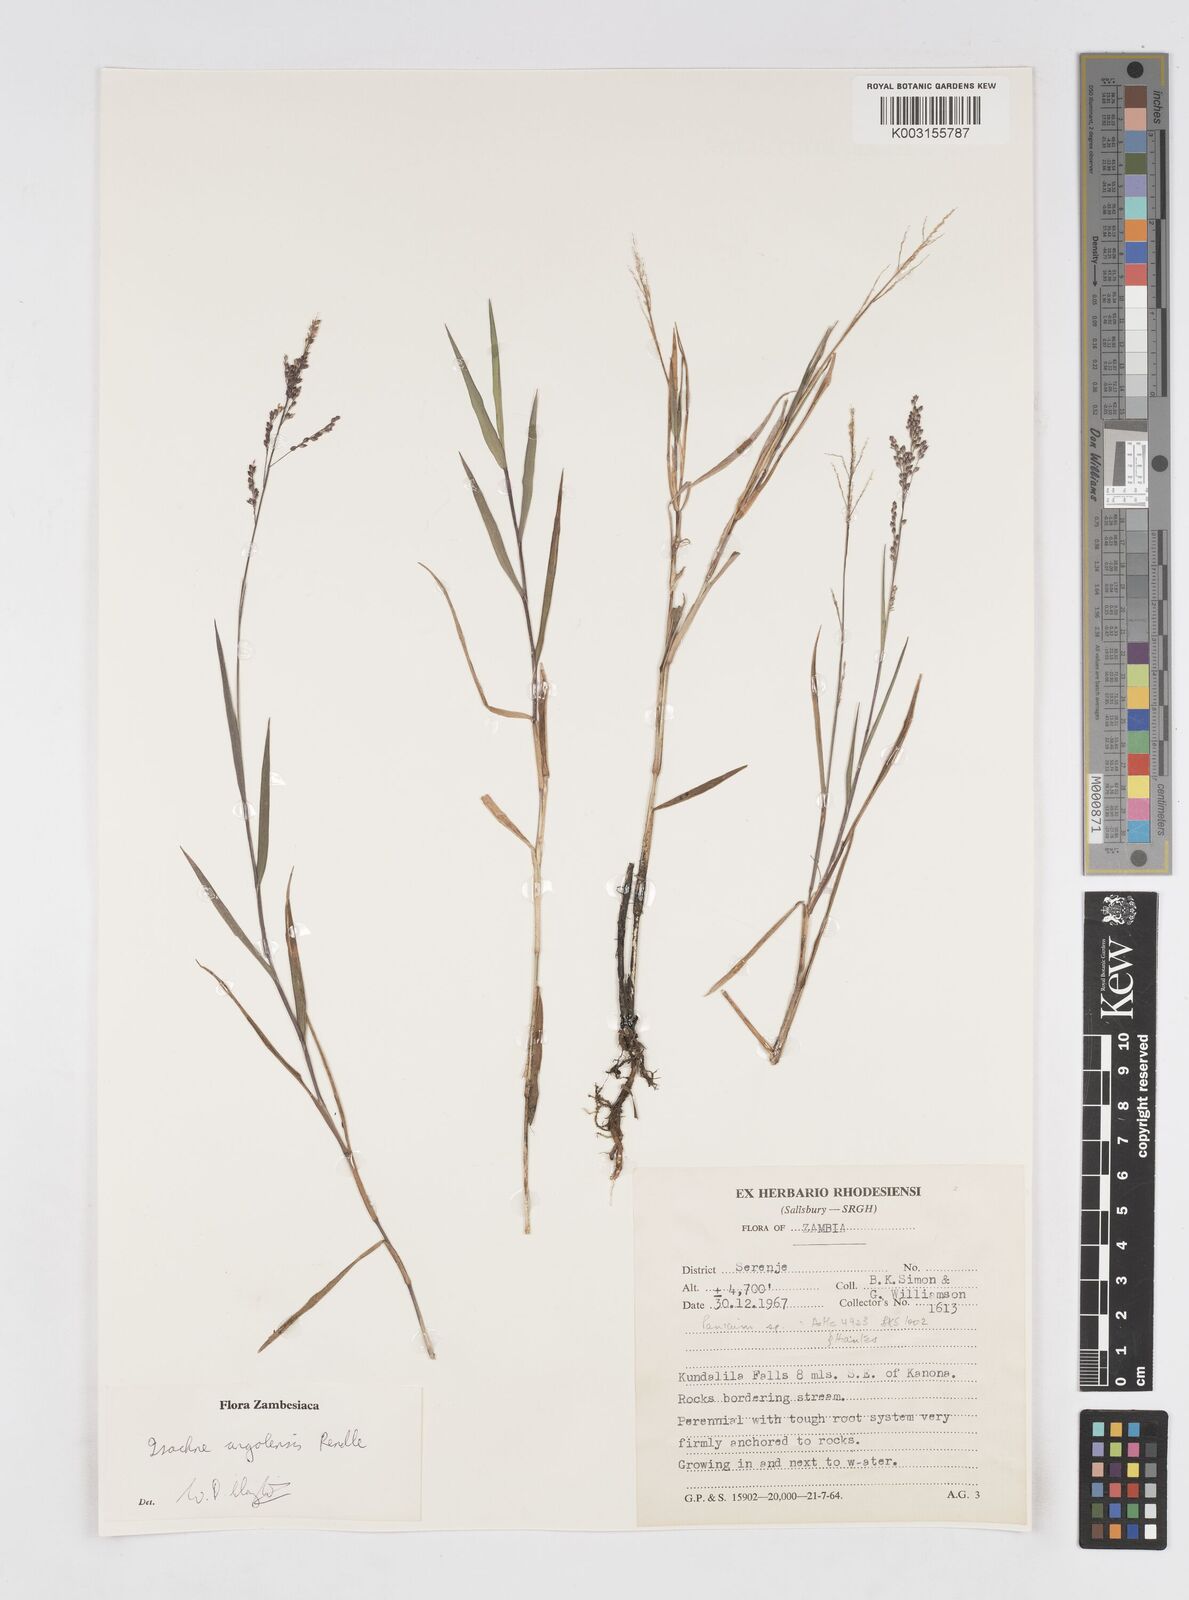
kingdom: Plantae
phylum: Tracheophyta
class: Liliopsida
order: Poales
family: Poaceae
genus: Isachne
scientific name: Isachne angolensis
